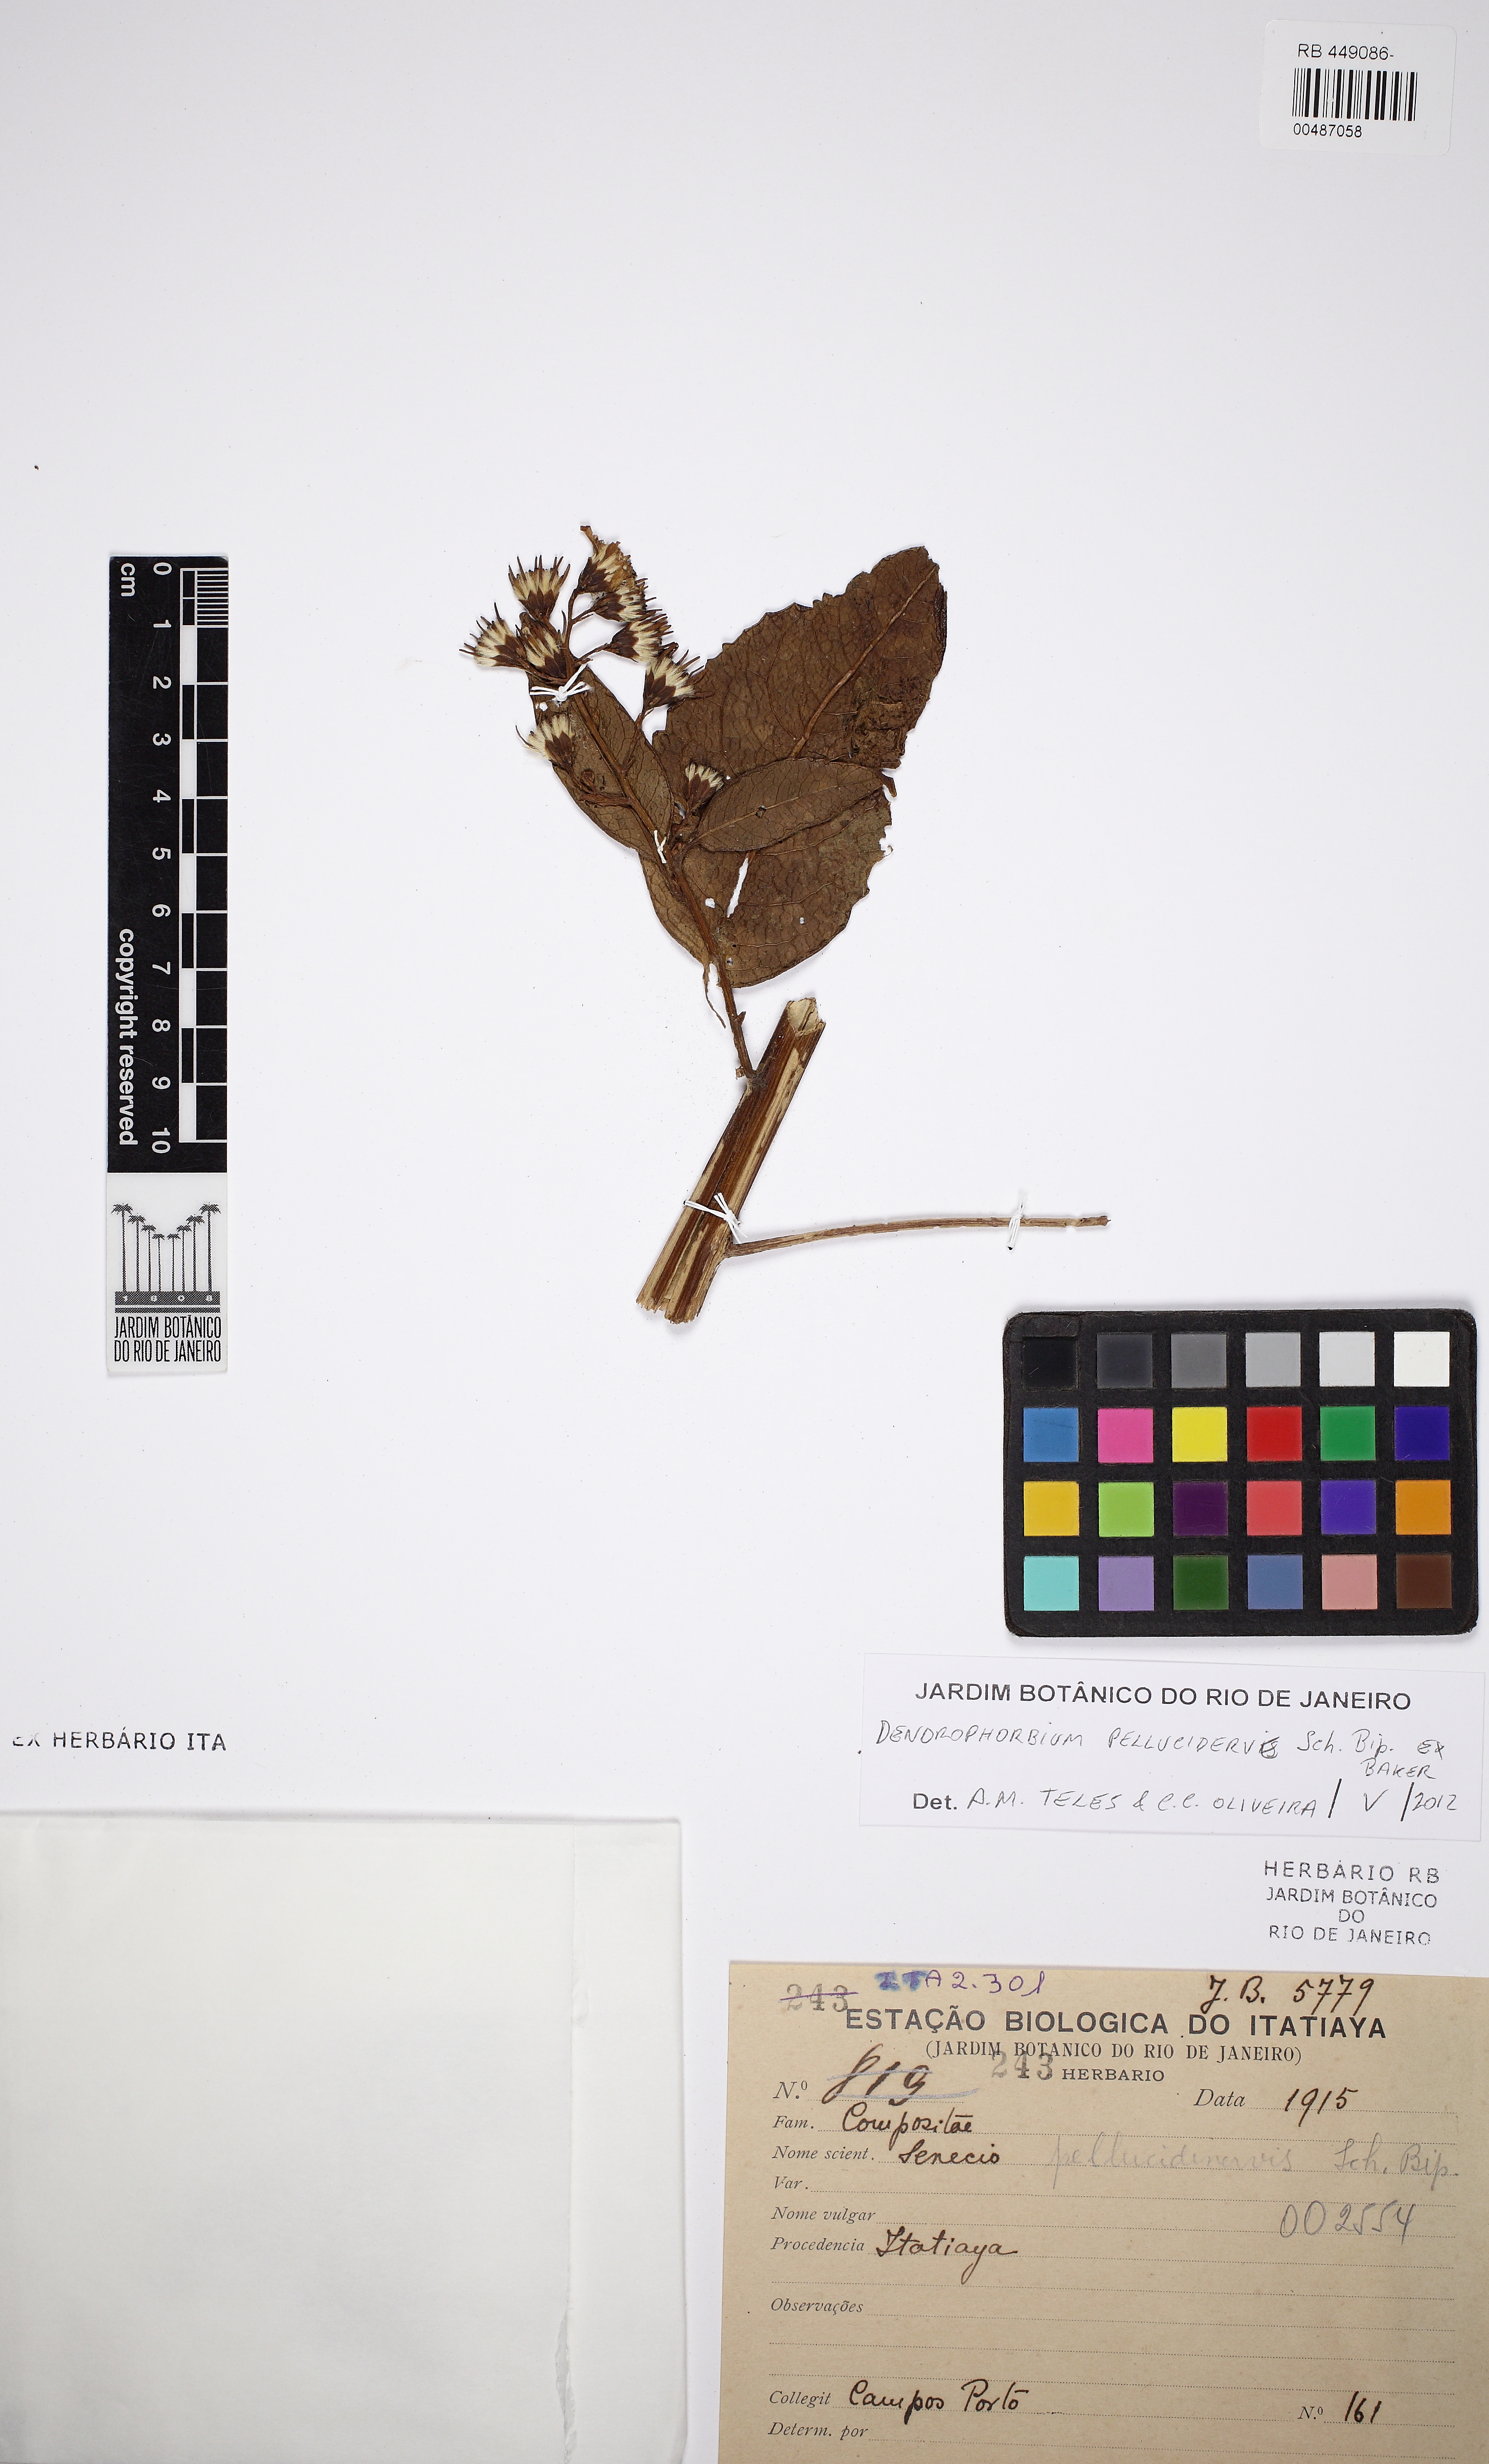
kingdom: Plantae
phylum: Tracheophyta
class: Magnoliopsida
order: Asterales
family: Asteraceae
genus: Dendrophorbium
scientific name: Dendrophorbium pellucidinerve
